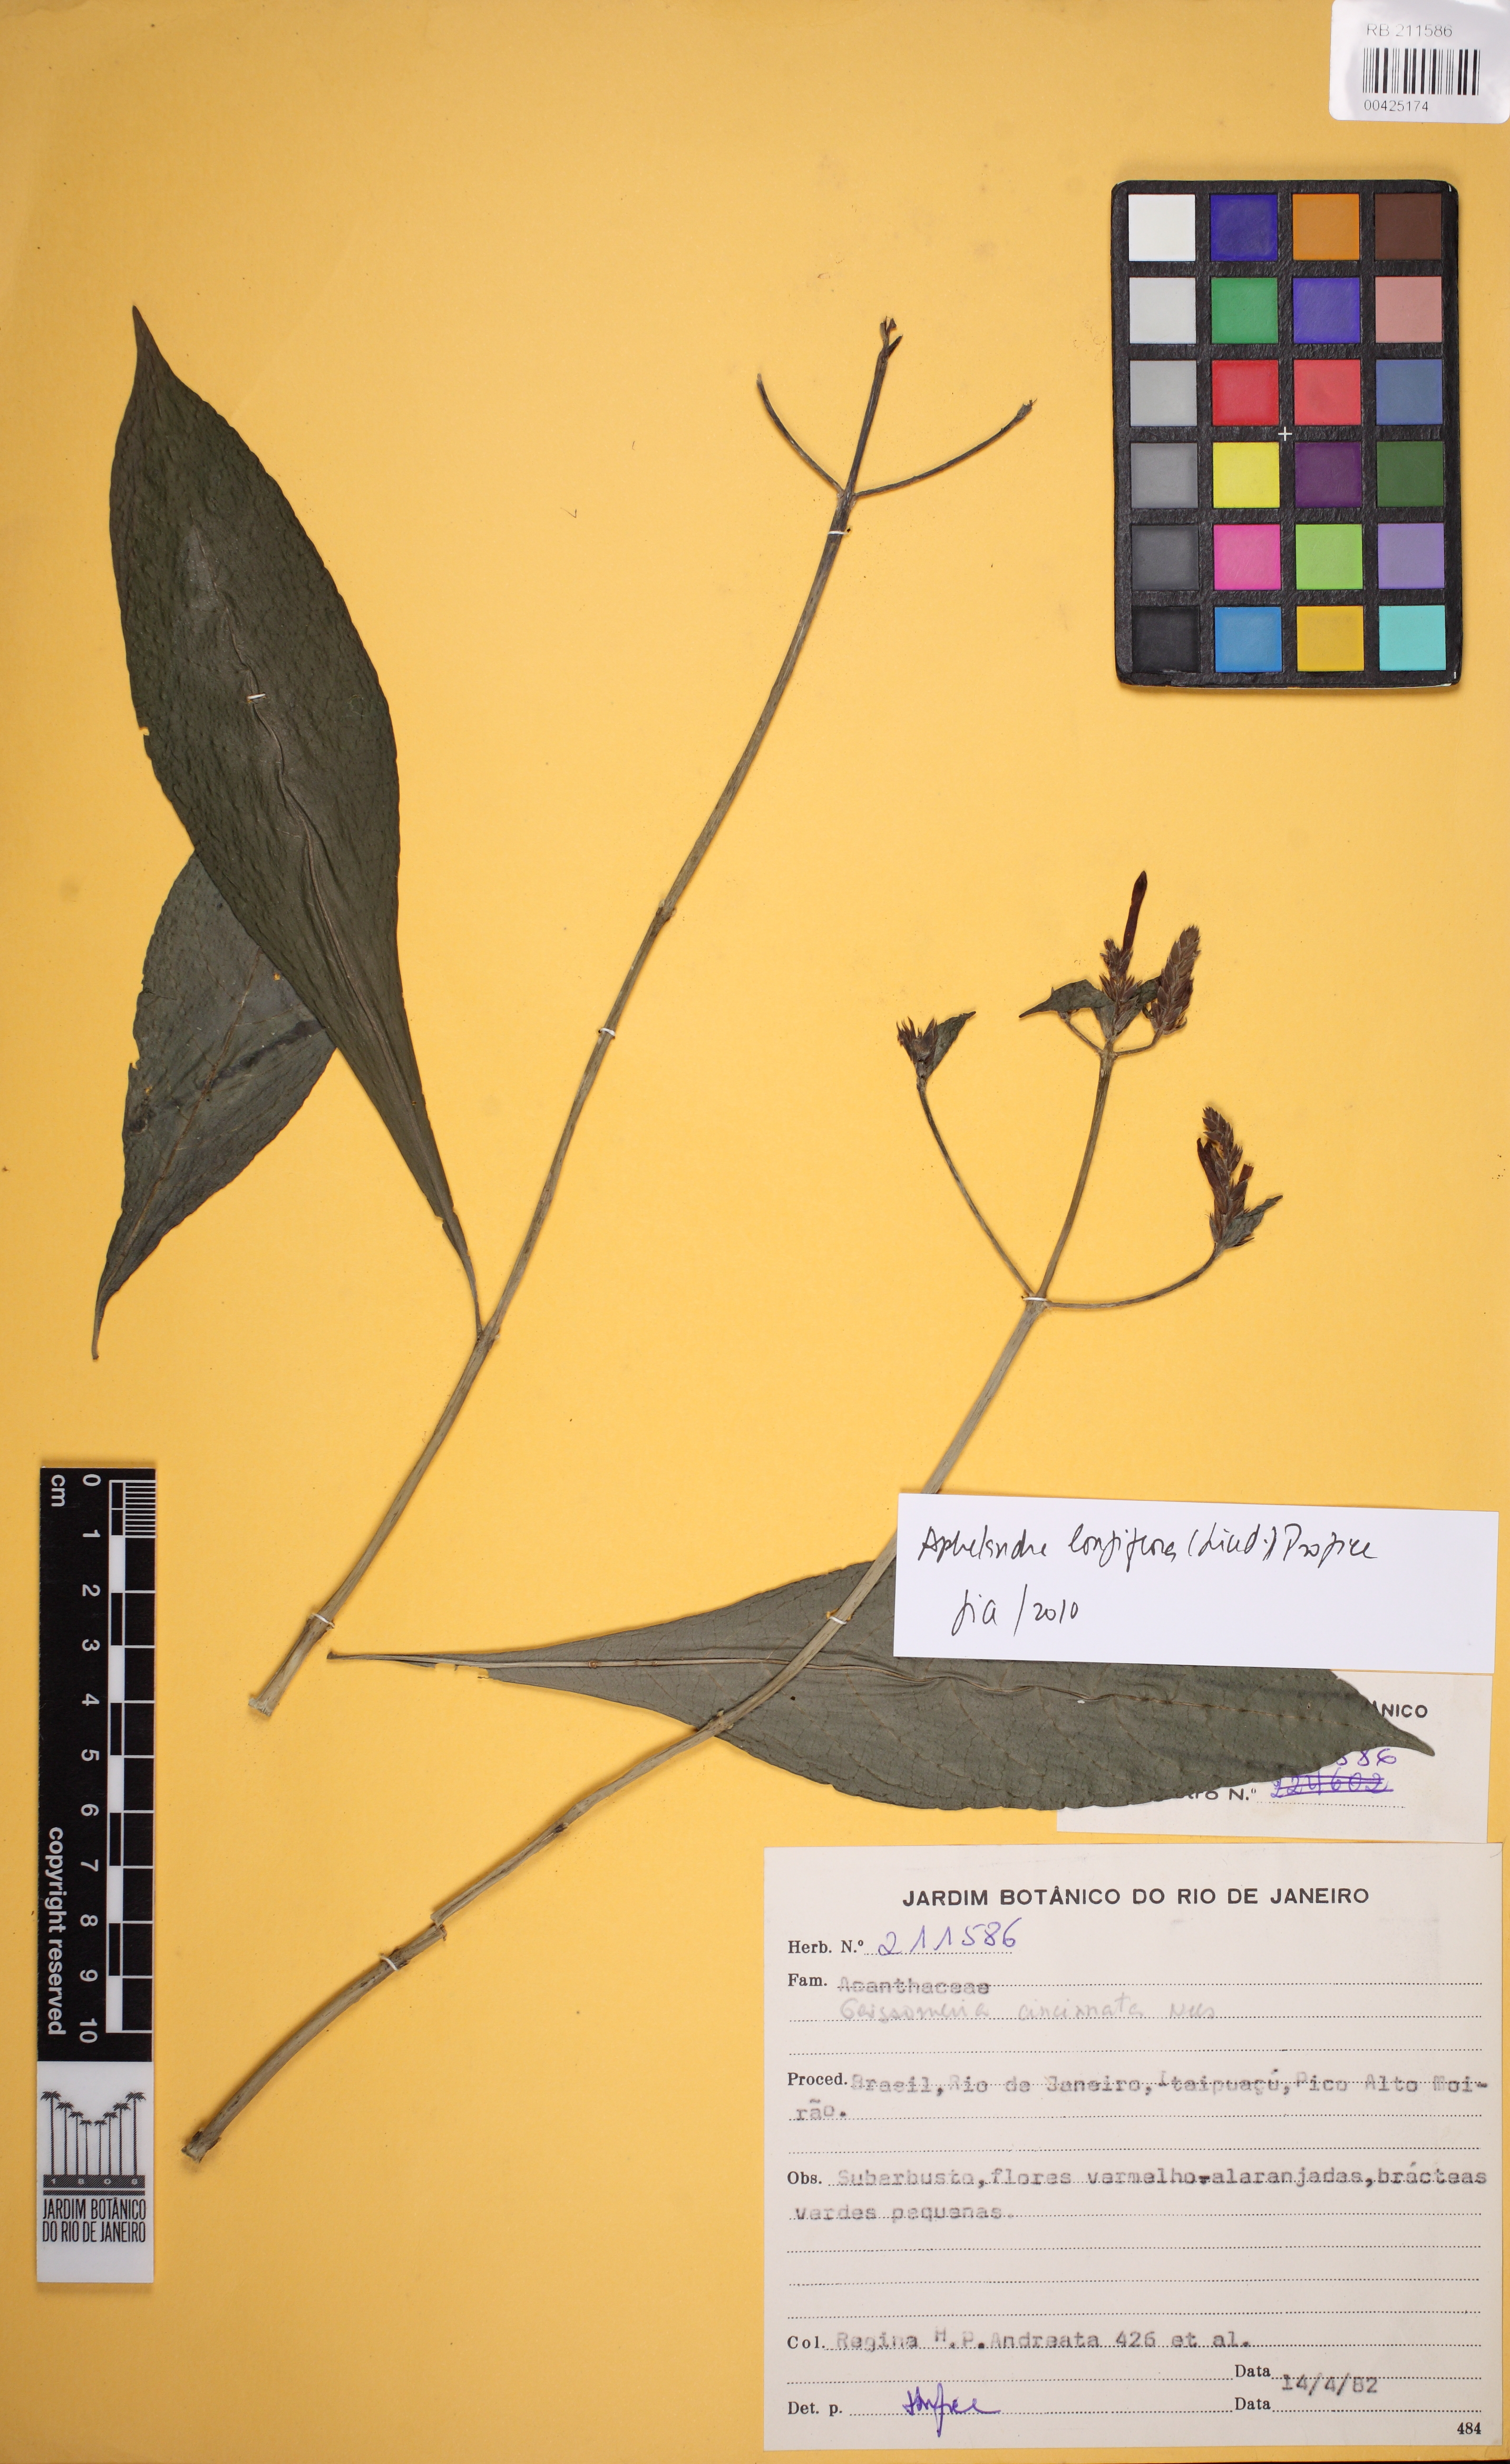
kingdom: Plantae
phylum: Tracheophyta
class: Magnoliopsida
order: Lamiales
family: Acanthaceae
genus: Aphelandra
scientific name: Aphelandra longiflora
